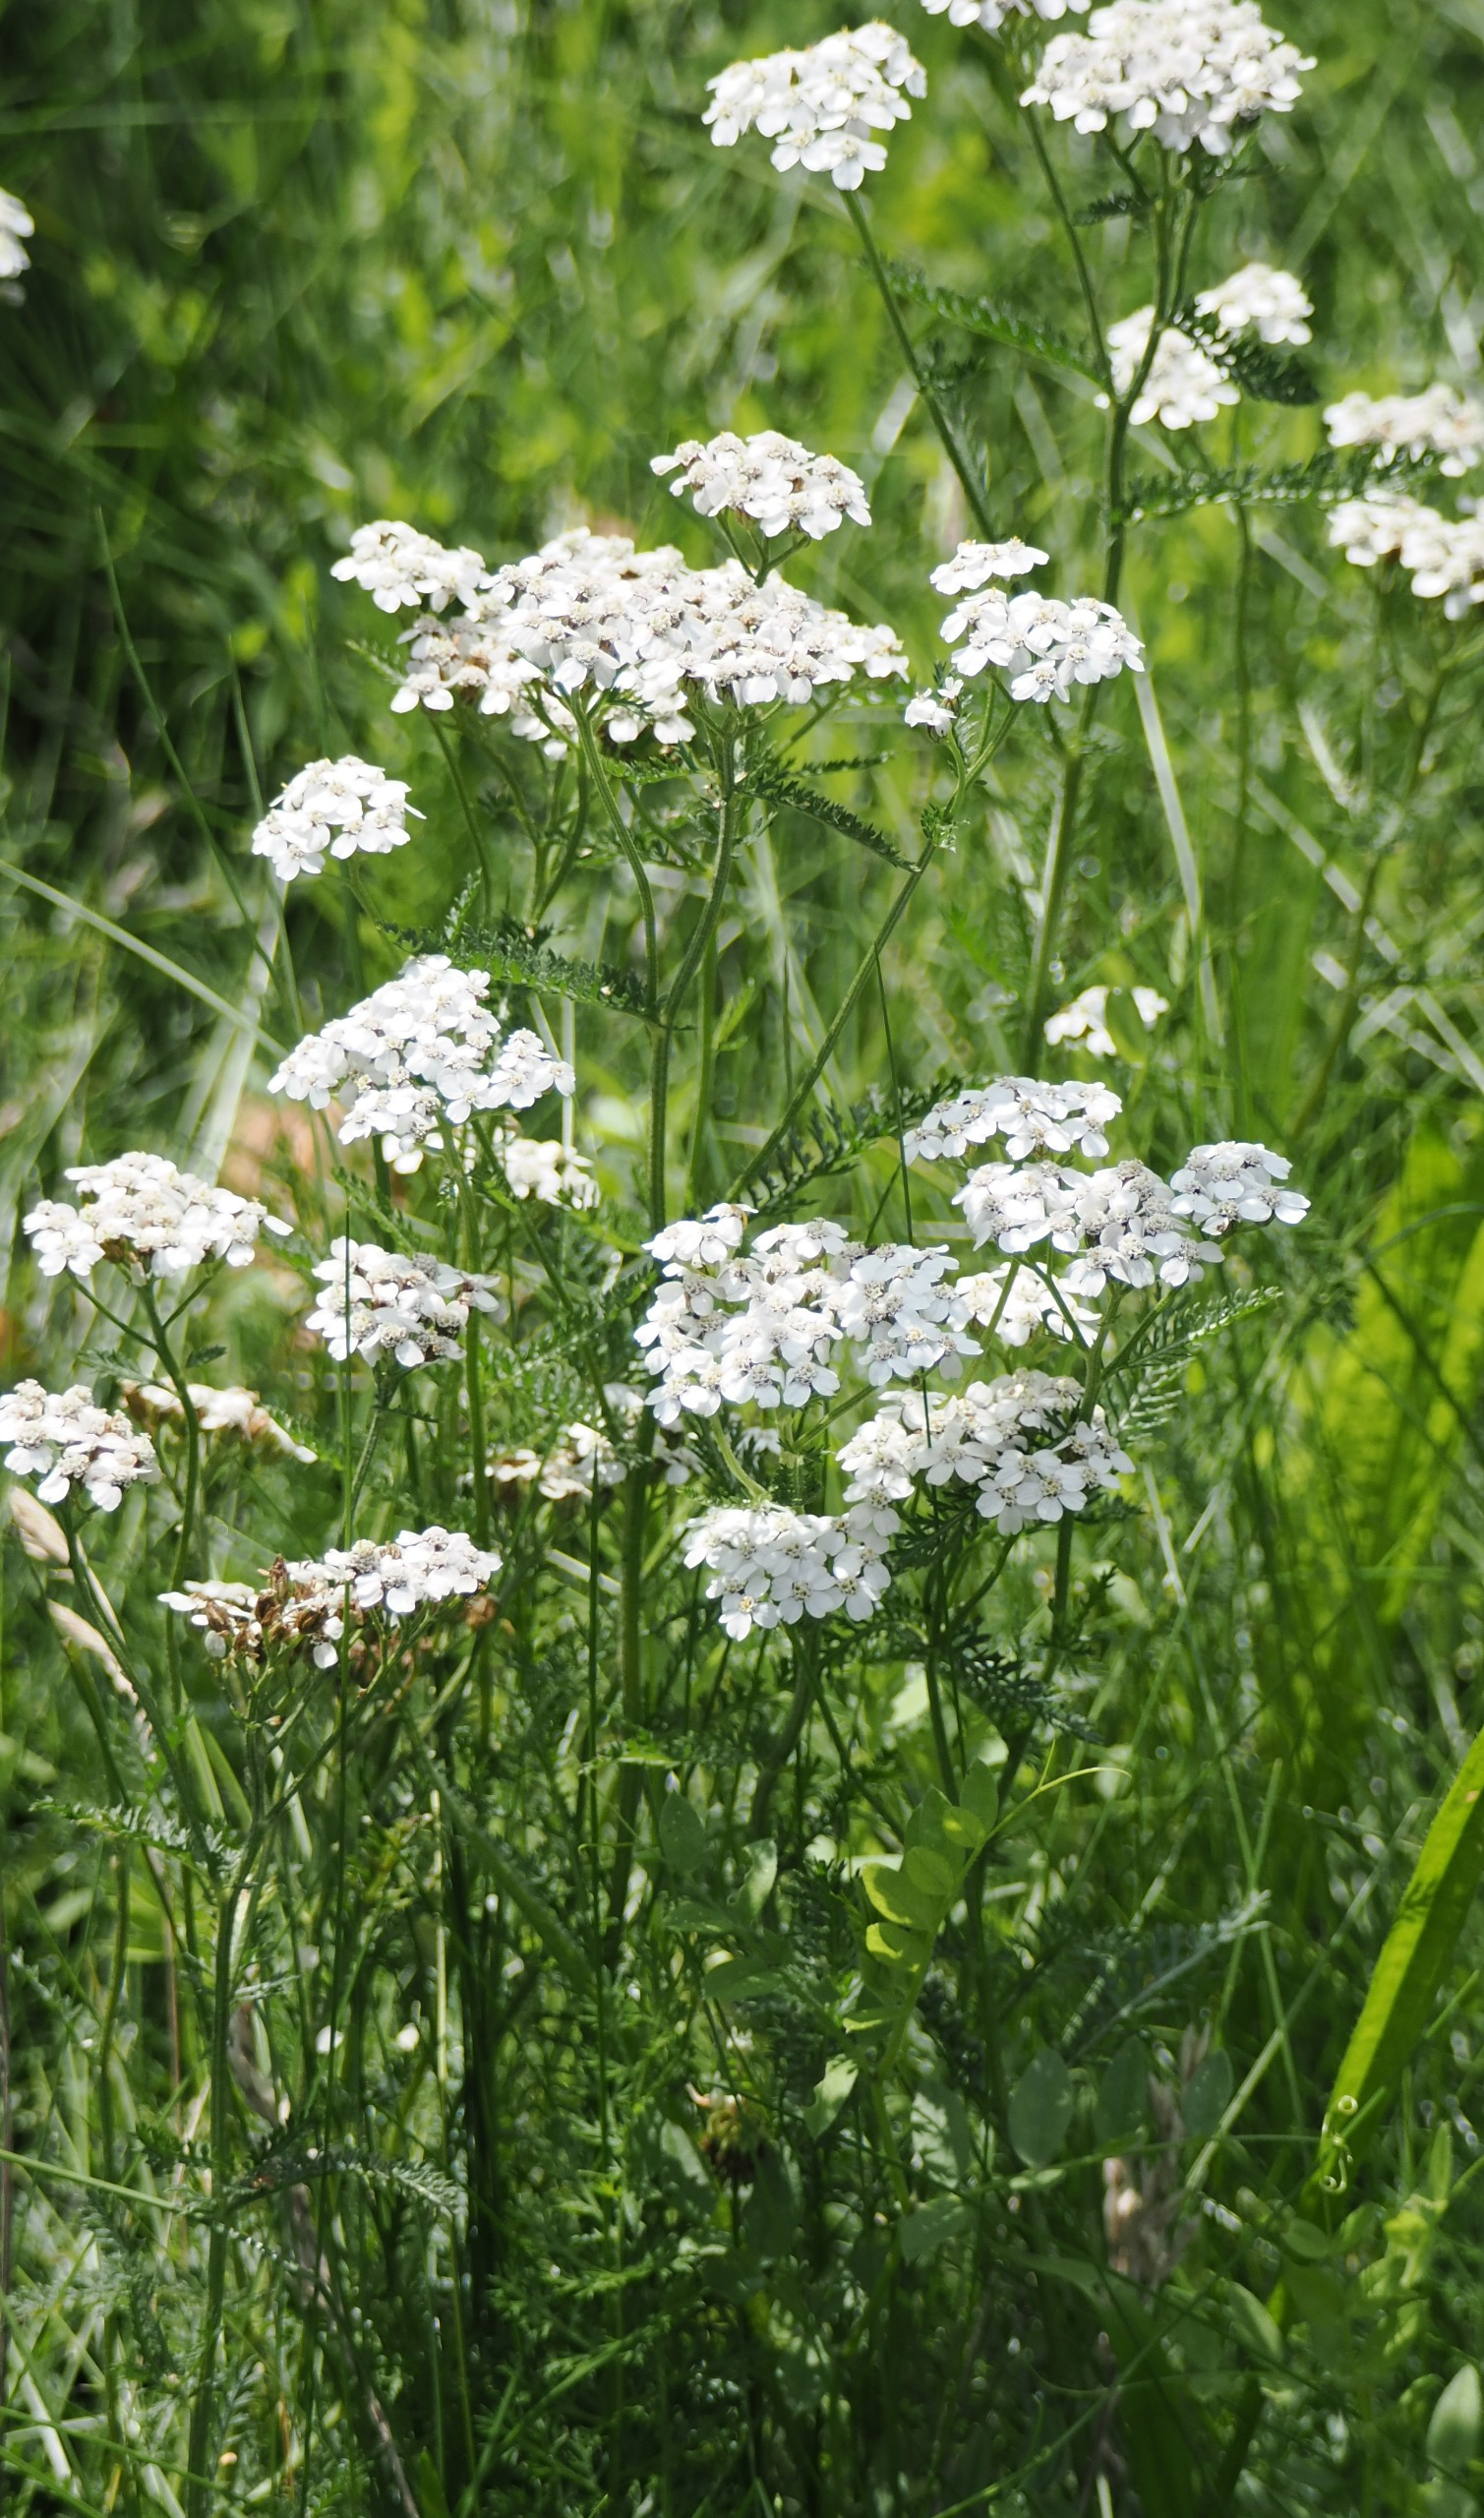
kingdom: Plantae
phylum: Tracheophyta
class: Magnoliopsida
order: Asterales
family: Asteraceae
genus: Achillea
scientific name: Achillea millefolium
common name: Almindelig røllike
